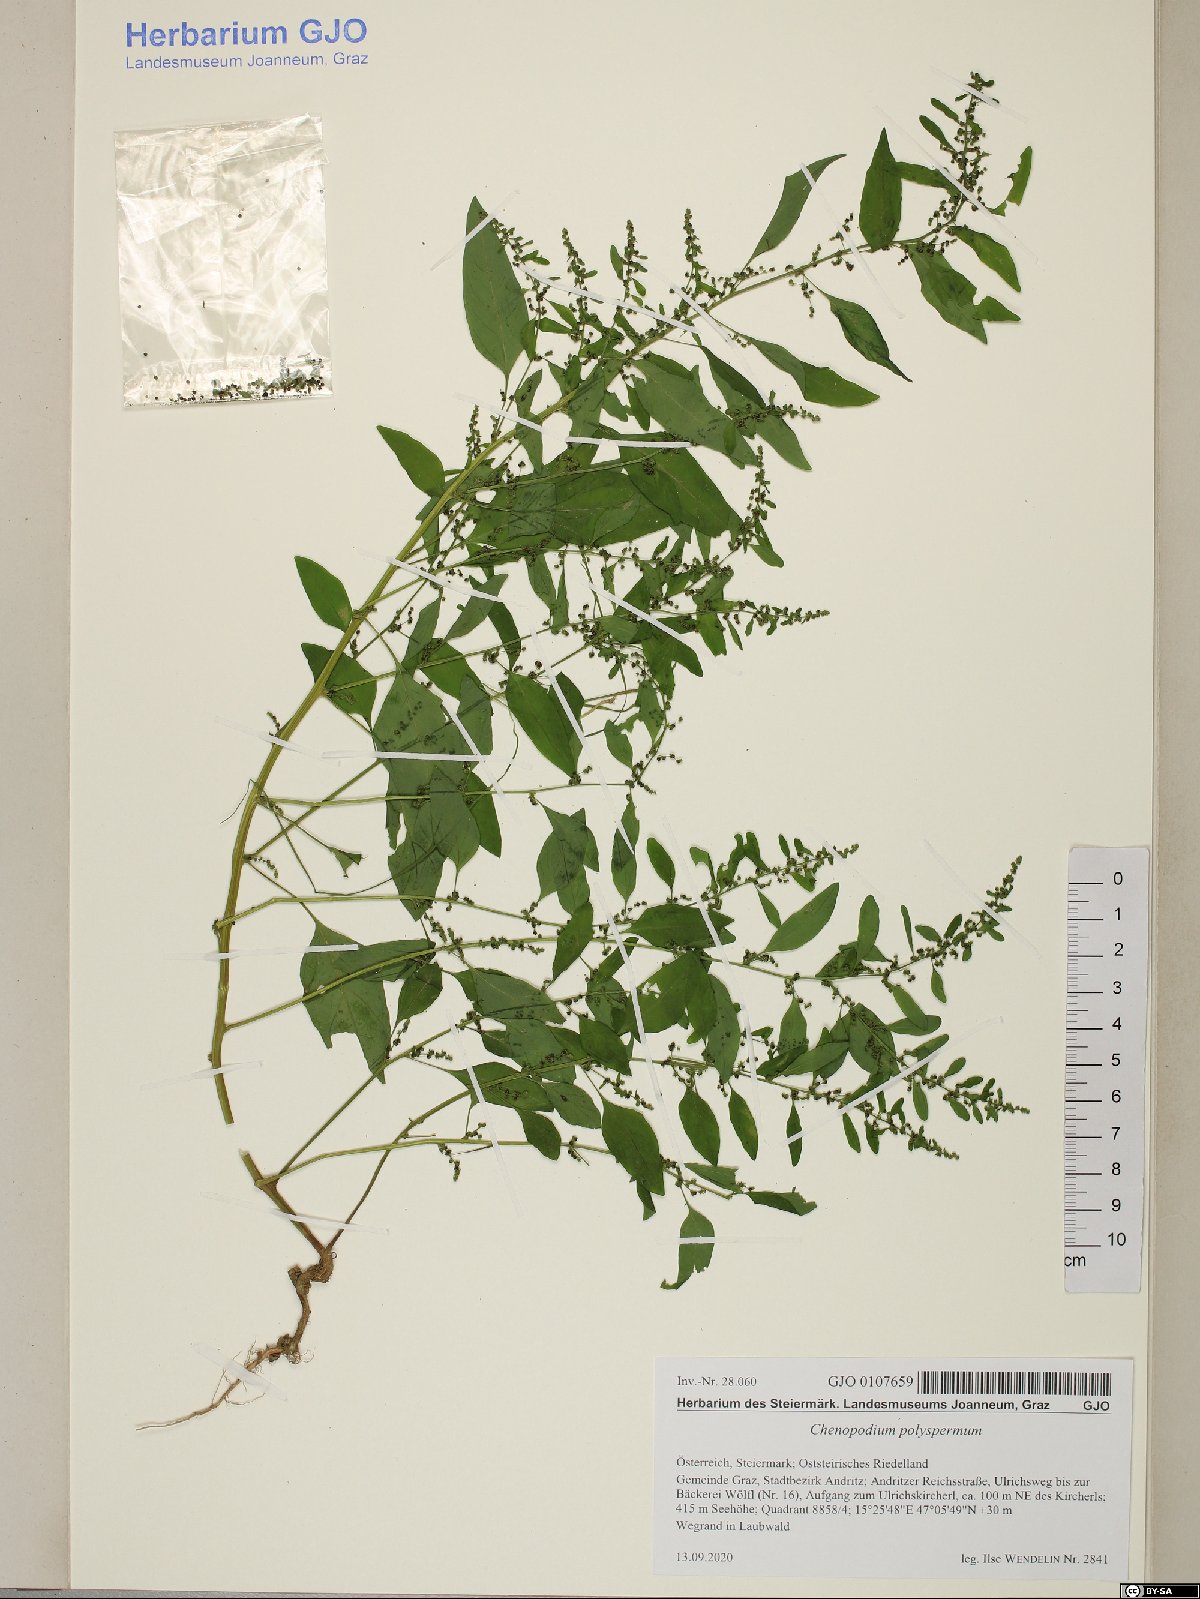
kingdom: Plantae
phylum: Tracheophyta
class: Magnoliopsida
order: Caryophyllales
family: Amaranthaceae
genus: Lipandra
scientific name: Lipandra polysperma
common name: Many-seed goosefoot
